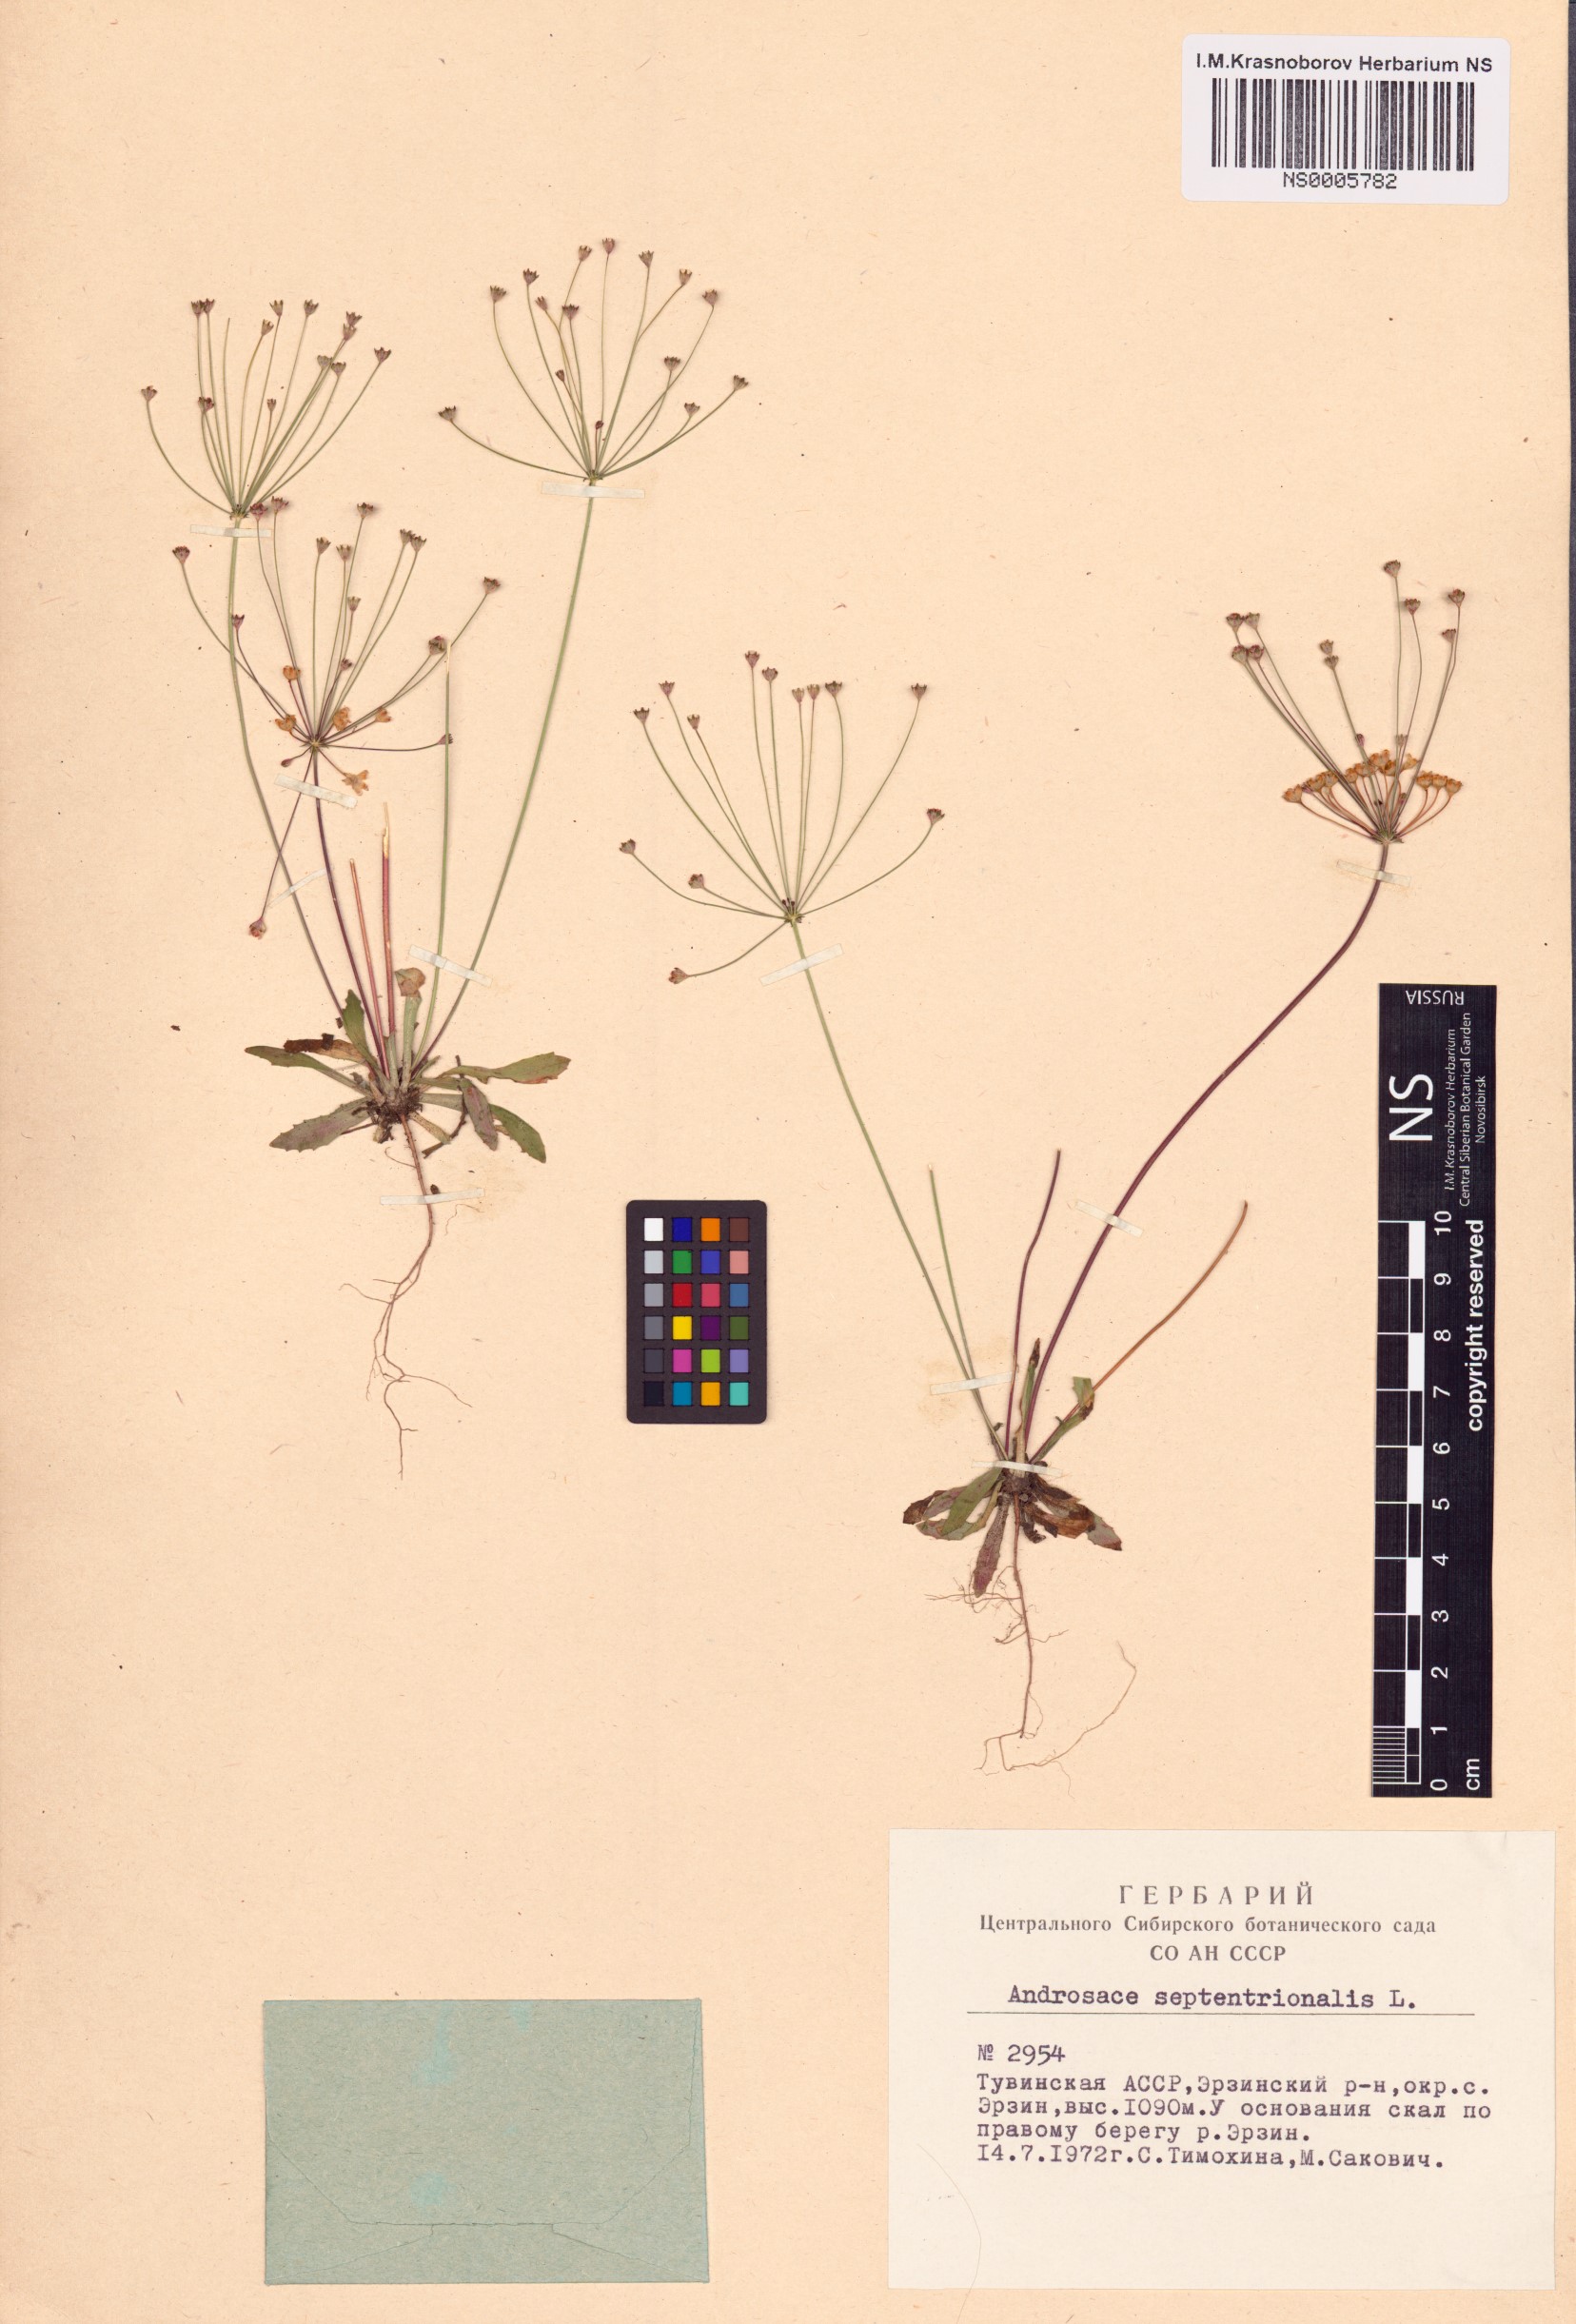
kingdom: Plantae
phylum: Tracheophyta
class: Magnoliopsida
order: Ericales
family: Primulaceae
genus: Androsace
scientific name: Androsace septentrionalis
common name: Hairy northern fairy-candelabra
